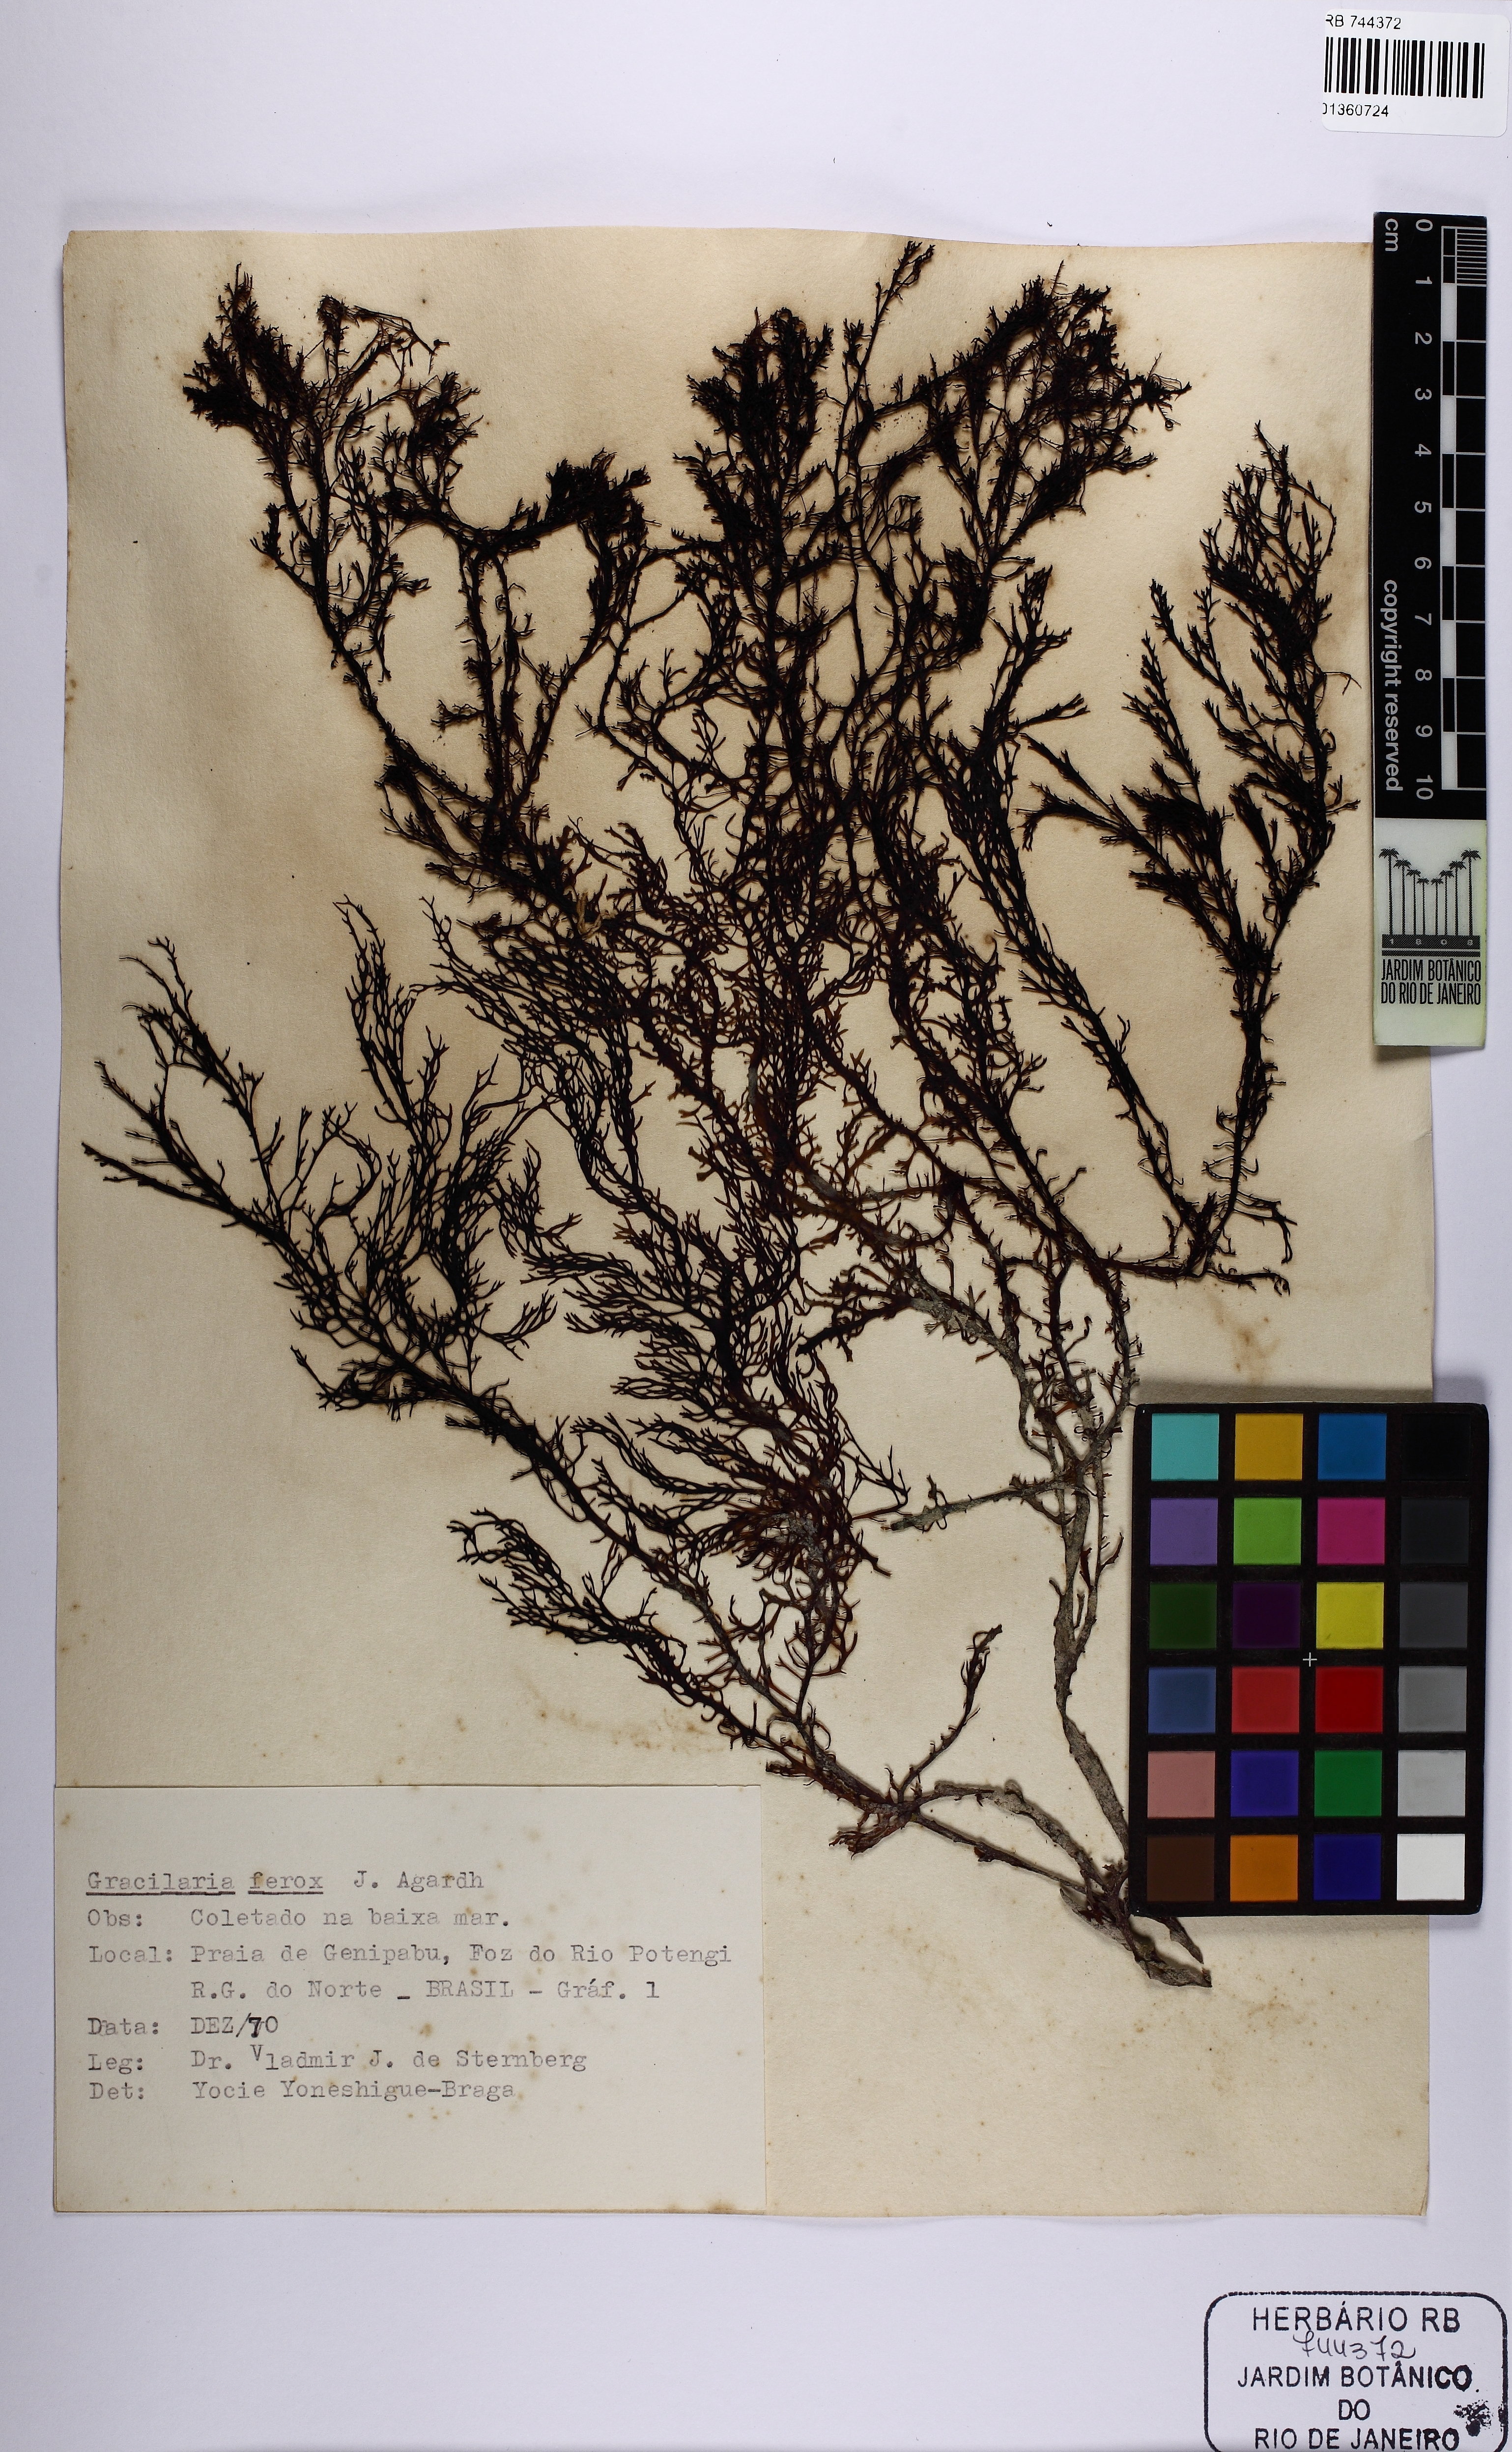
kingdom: Plantae
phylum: Rhodophyta
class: Florideophyceae
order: Gracilariales
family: Gracilariaceae
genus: Gracilaria
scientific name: Gracilaria ferox
